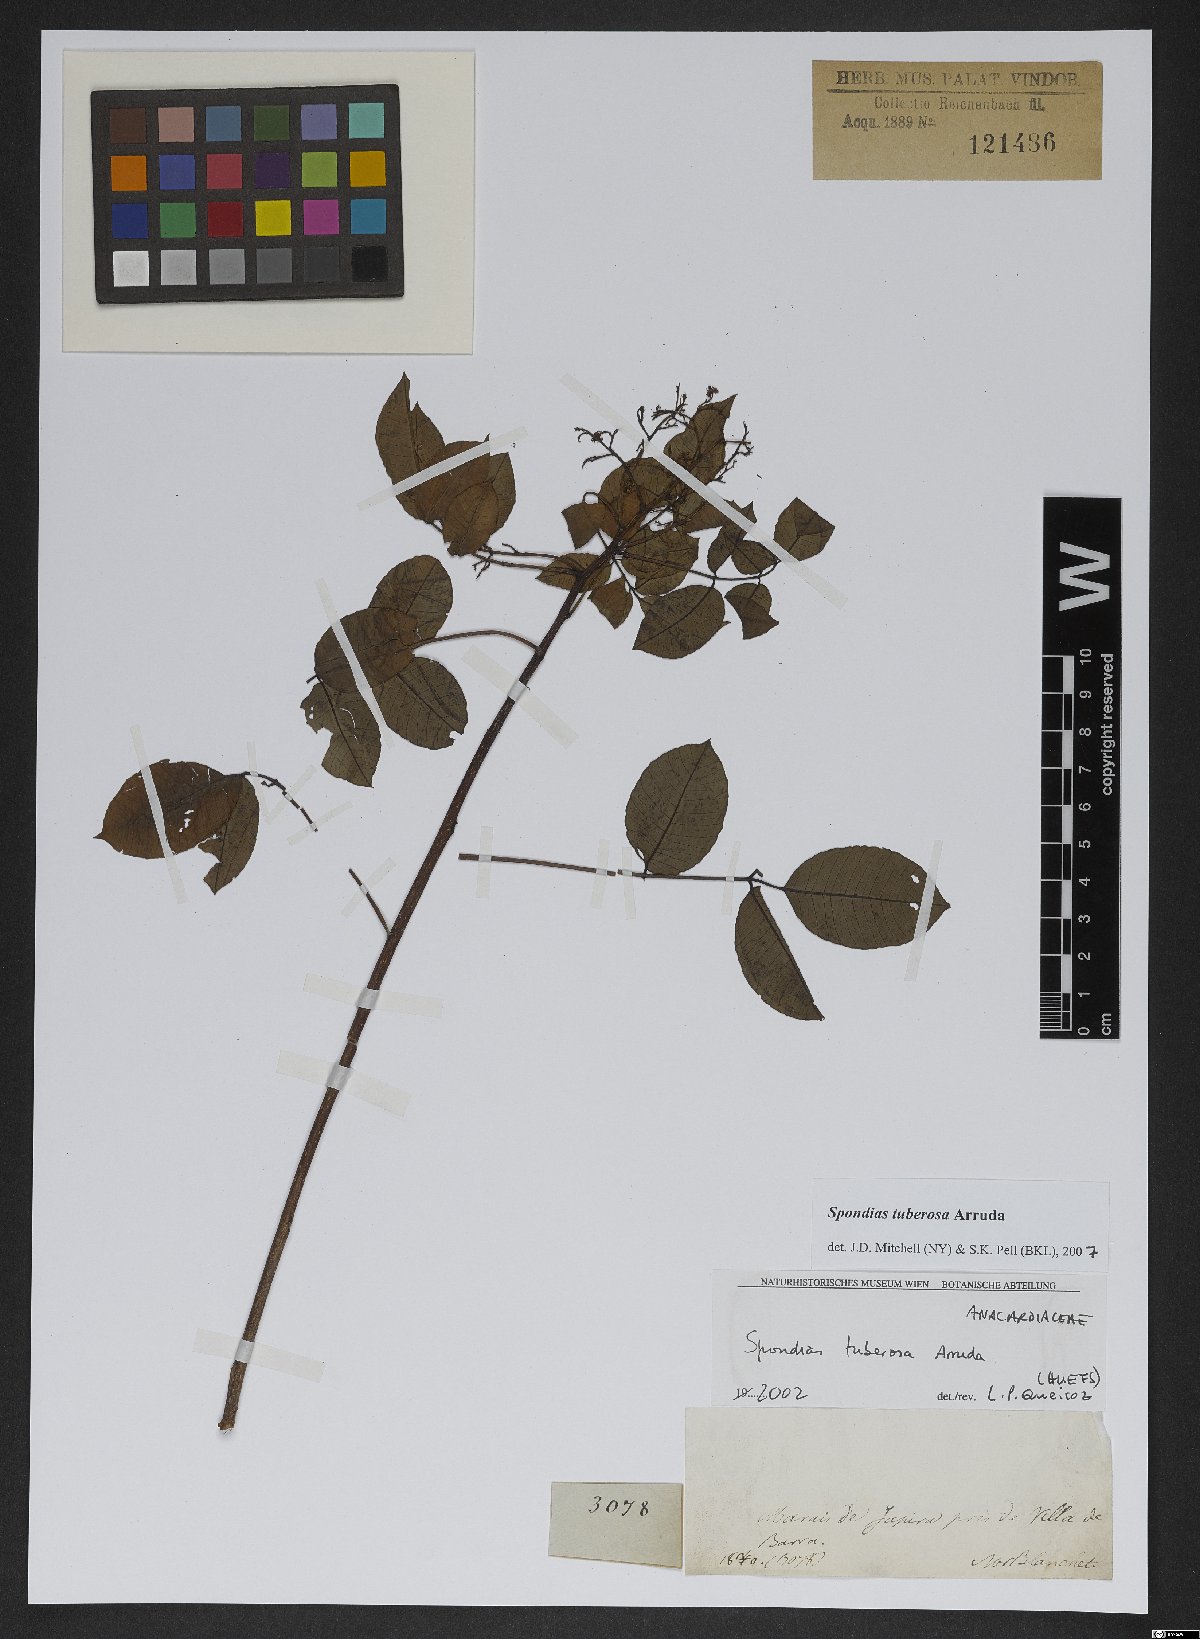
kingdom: Plantae
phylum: Tracheophyta
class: Magnoliopsida
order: Sapindales
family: Anacardiaceae
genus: Spondias
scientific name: Spondias tuberosa
